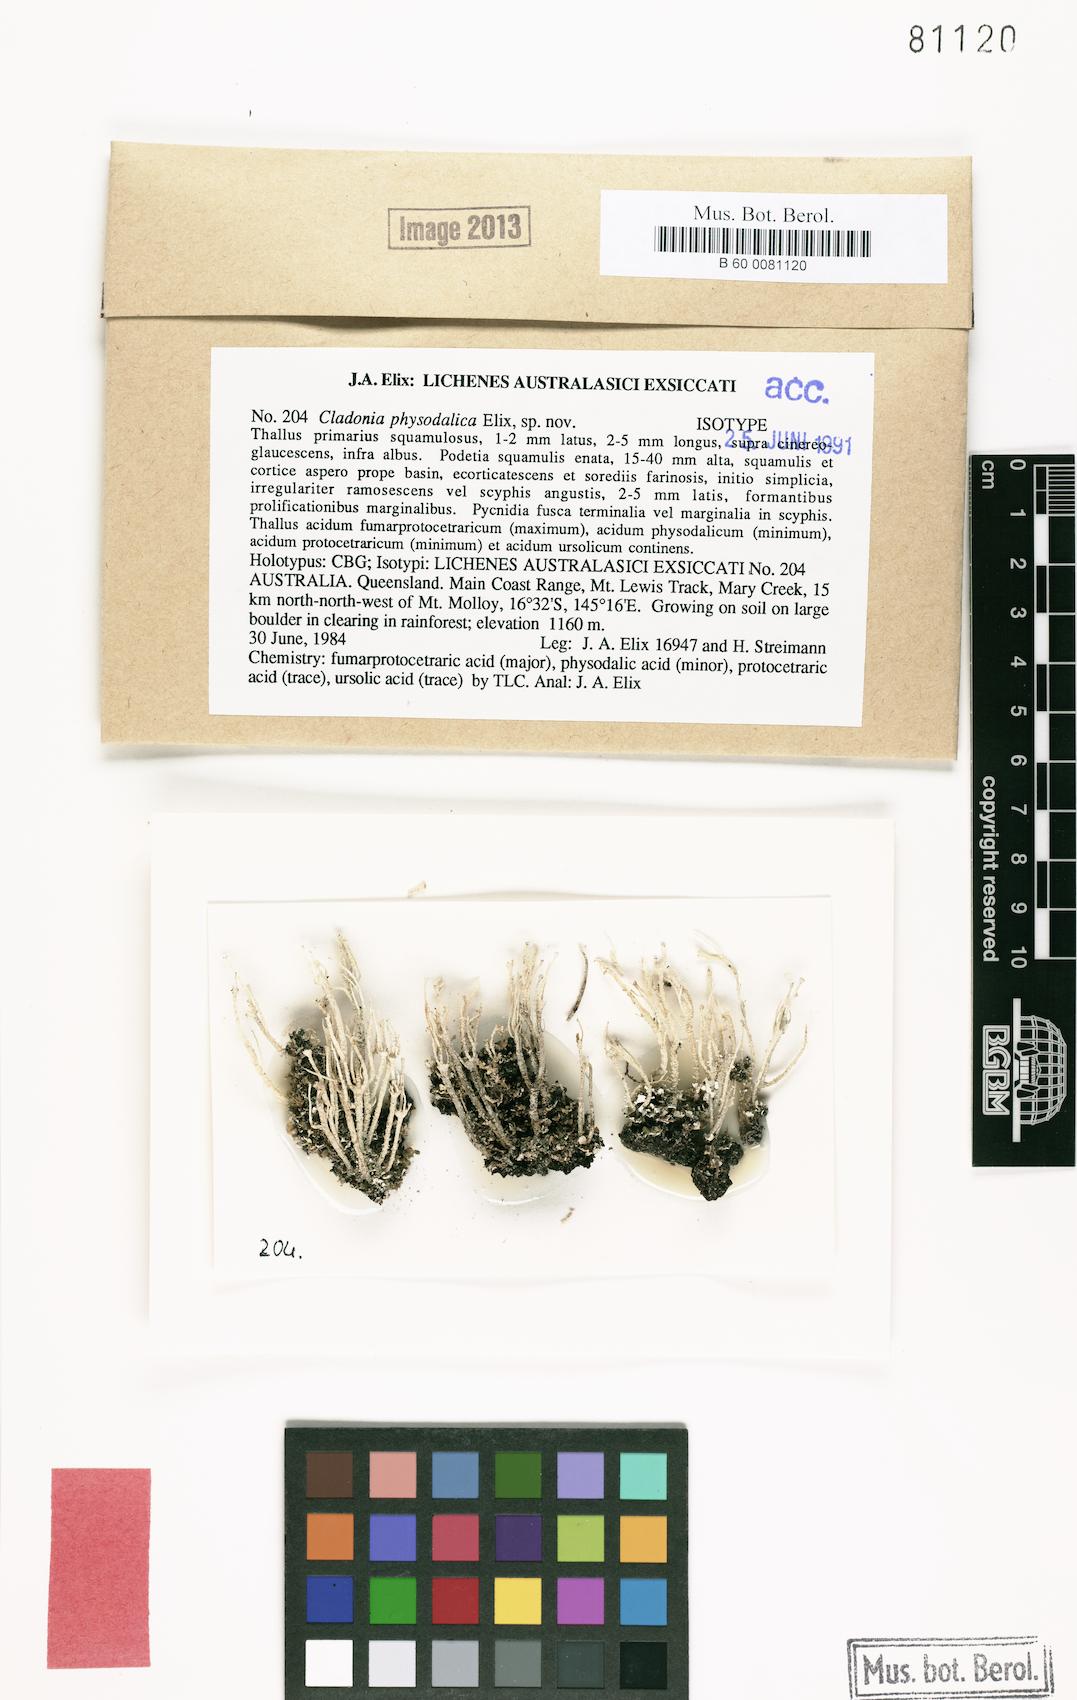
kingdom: Fungi
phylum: Ascomycota
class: Lecanoromycetes
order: Lecanorales
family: Cladoniaceae
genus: Cladonia
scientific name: Cladonia borbonica
